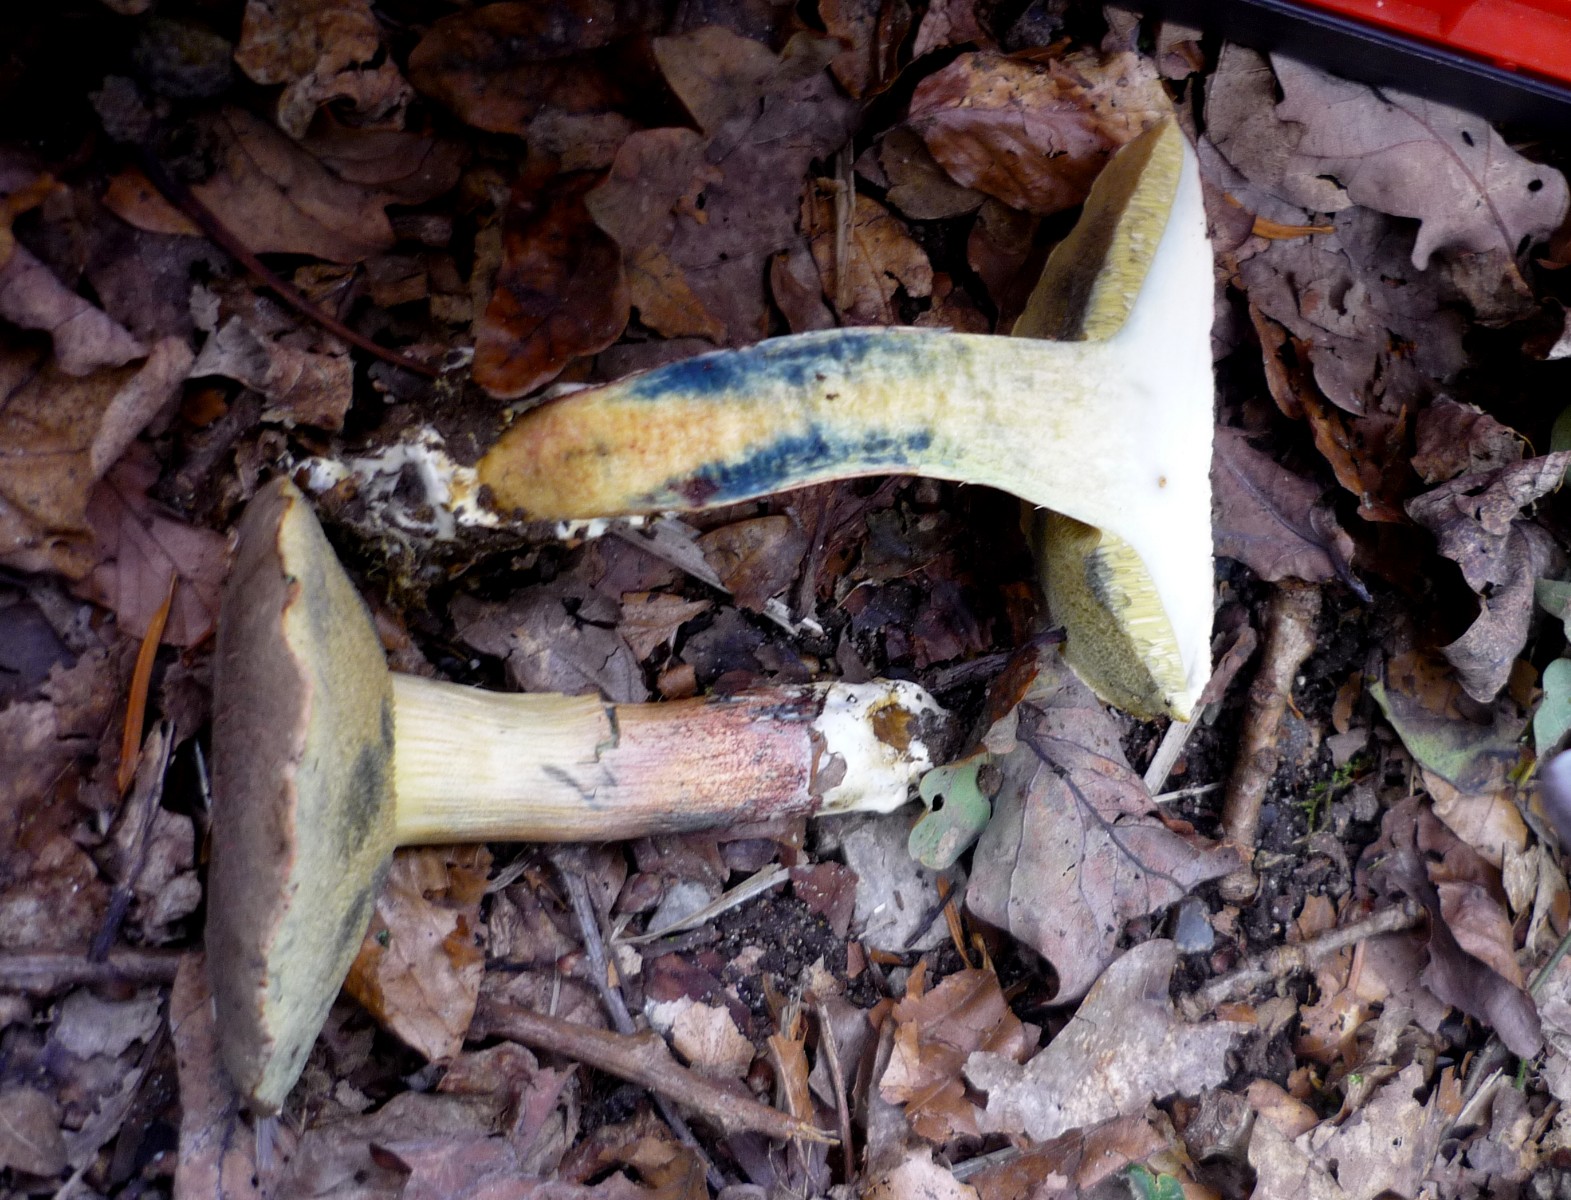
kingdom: Fungi
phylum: Basidiomycota
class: Agaricomycetes
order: Boletales
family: Boletaceae
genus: Xerocomellus
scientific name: Xerocomellus cisalpinus
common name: finsprukken rørhat
